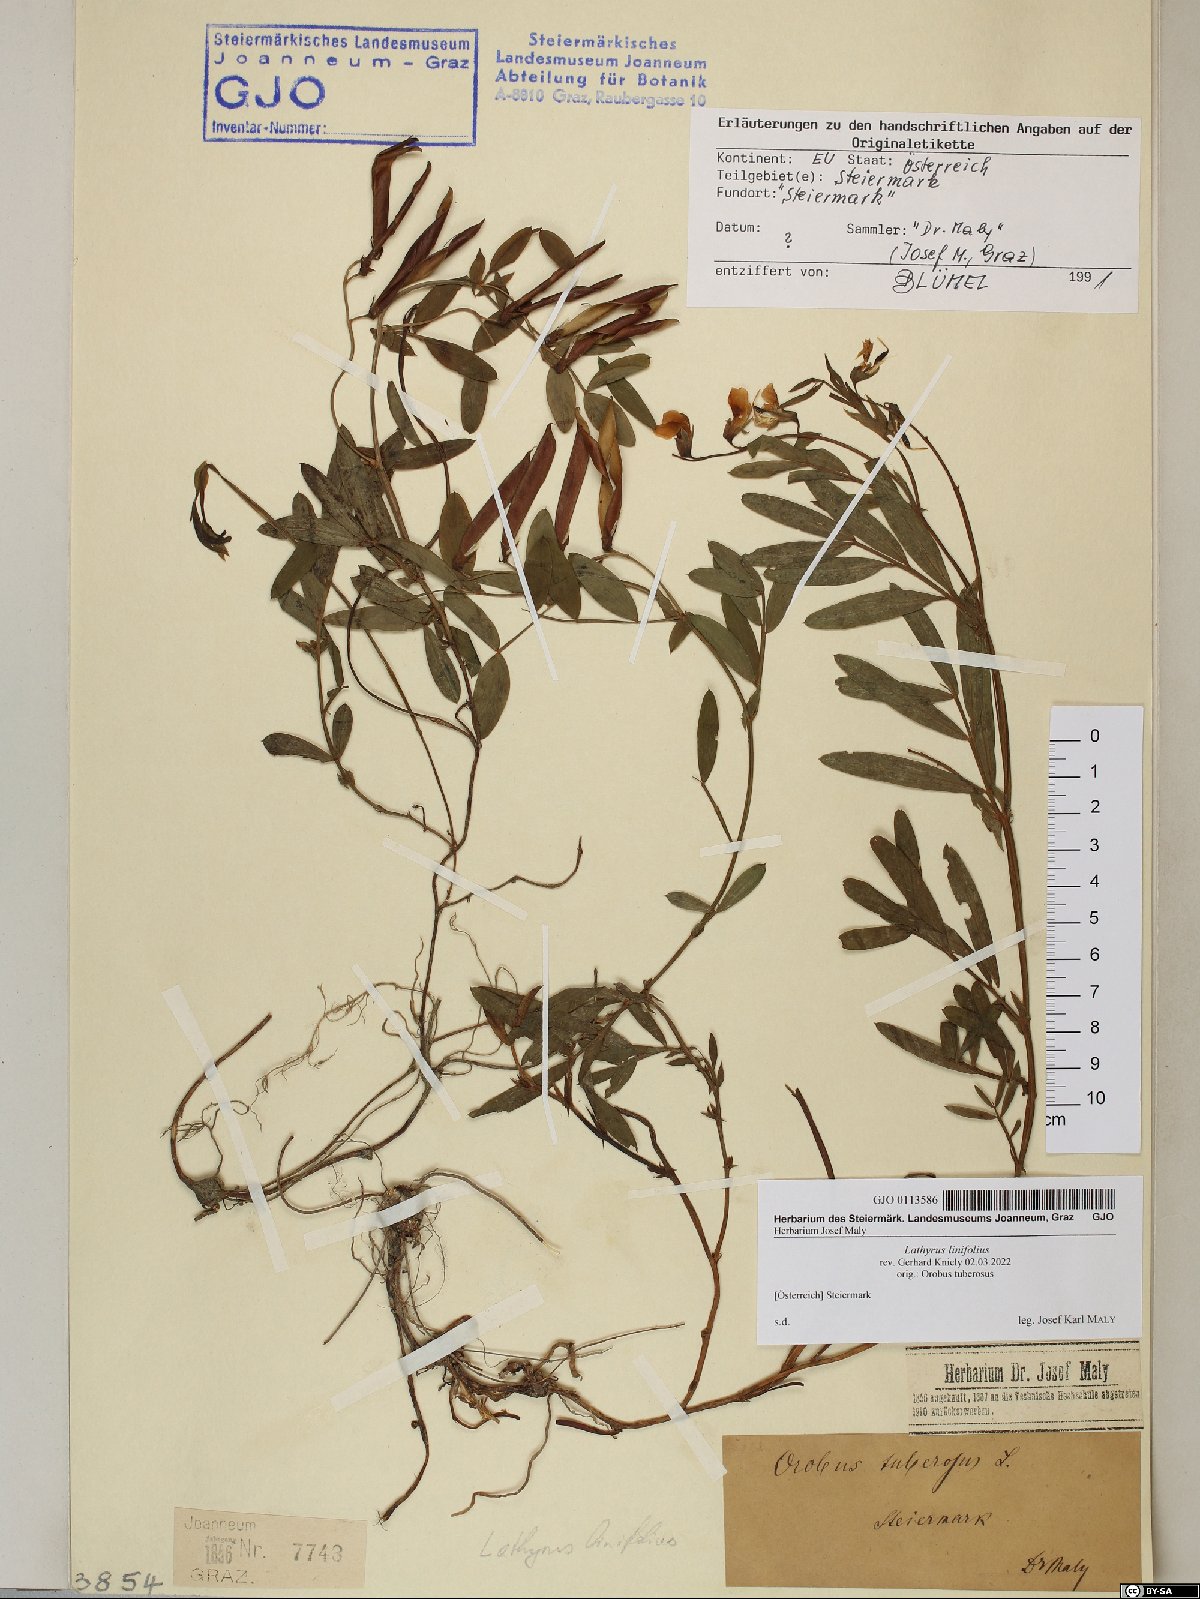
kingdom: Plantae
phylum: Tracheophyta
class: Magnoliopsida
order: Fabales
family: Fabaceae
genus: Lathyrus
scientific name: Lathyrus linifolius
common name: Bitter-vetch
